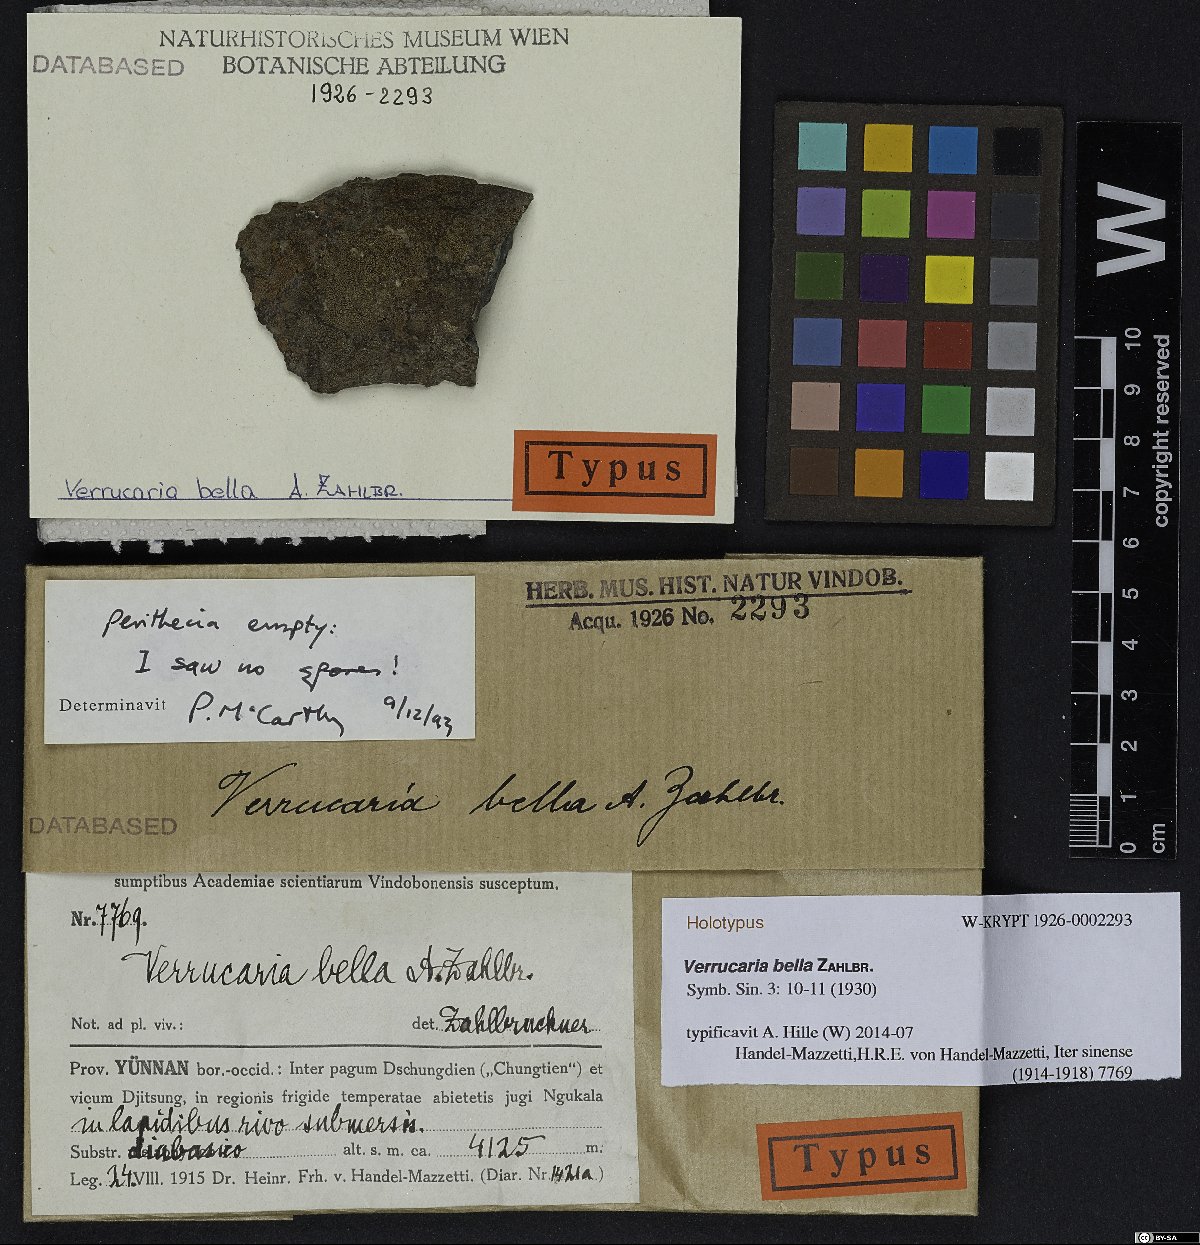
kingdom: Fungi
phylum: Ascomycota
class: Eurotiomycetes
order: Verrucariales
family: Verrucariaceae
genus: Verrucaria
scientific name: Verrucaria
